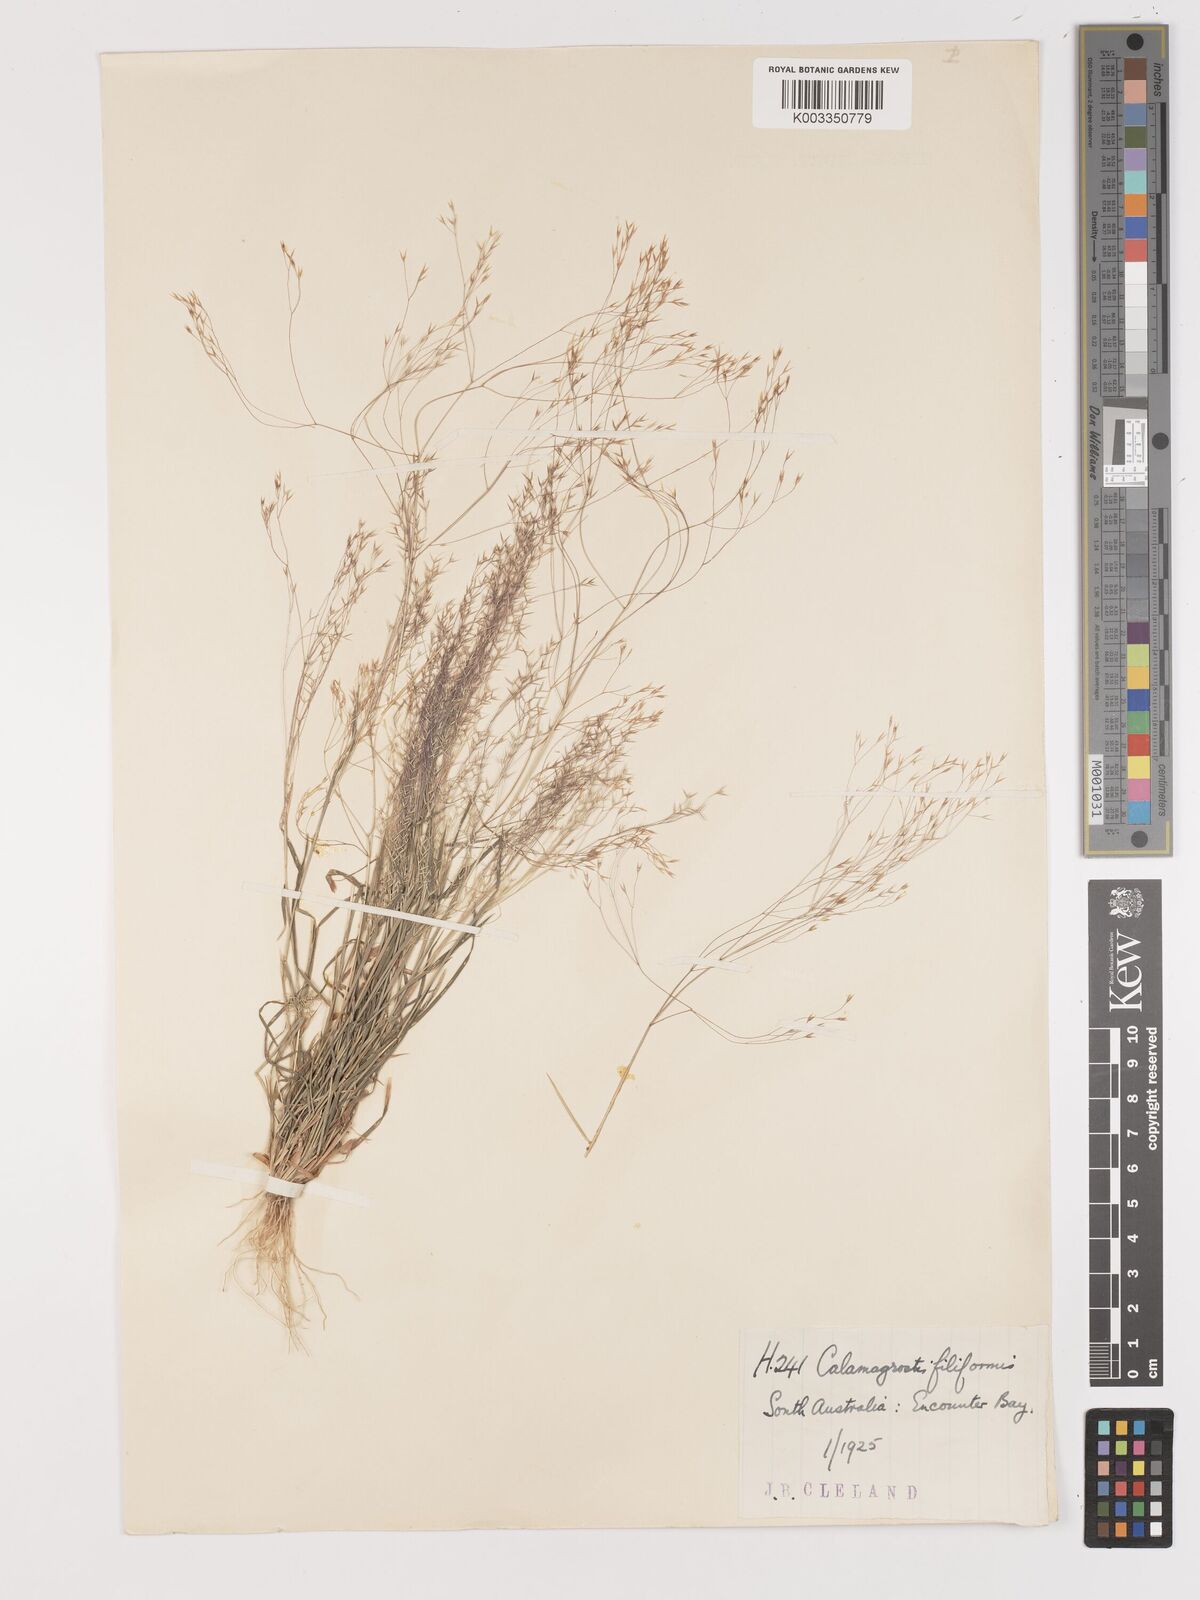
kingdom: Plantae
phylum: Tracheophyta
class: Liliopsida
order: Poales
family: Poaceae
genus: Lachnagrostis
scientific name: Lachnagrostis filiformis
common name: Bentgrass
